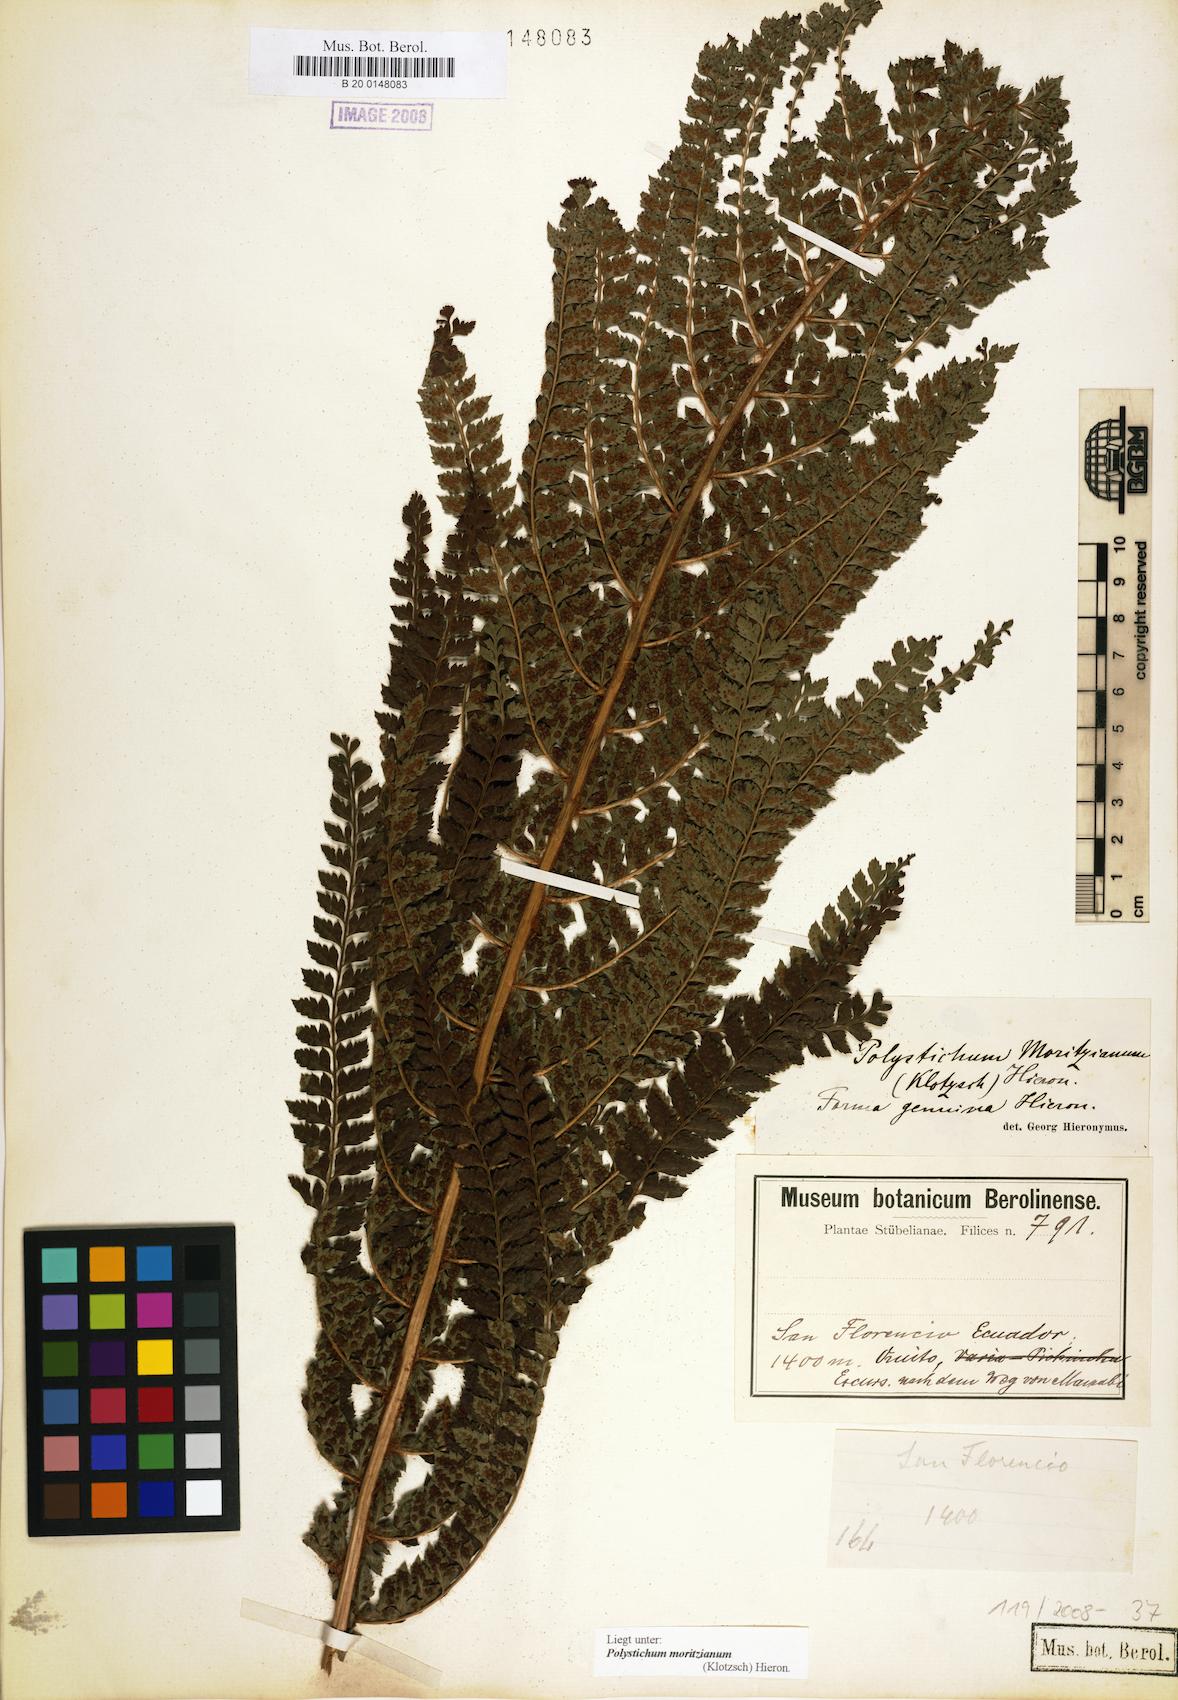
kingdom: Plantae
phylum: Tracheophyta
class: Polypodiopsida
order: Polypodiales
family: Dryopteridaceae
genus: Polystichum
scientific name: Polystichum muricatum
